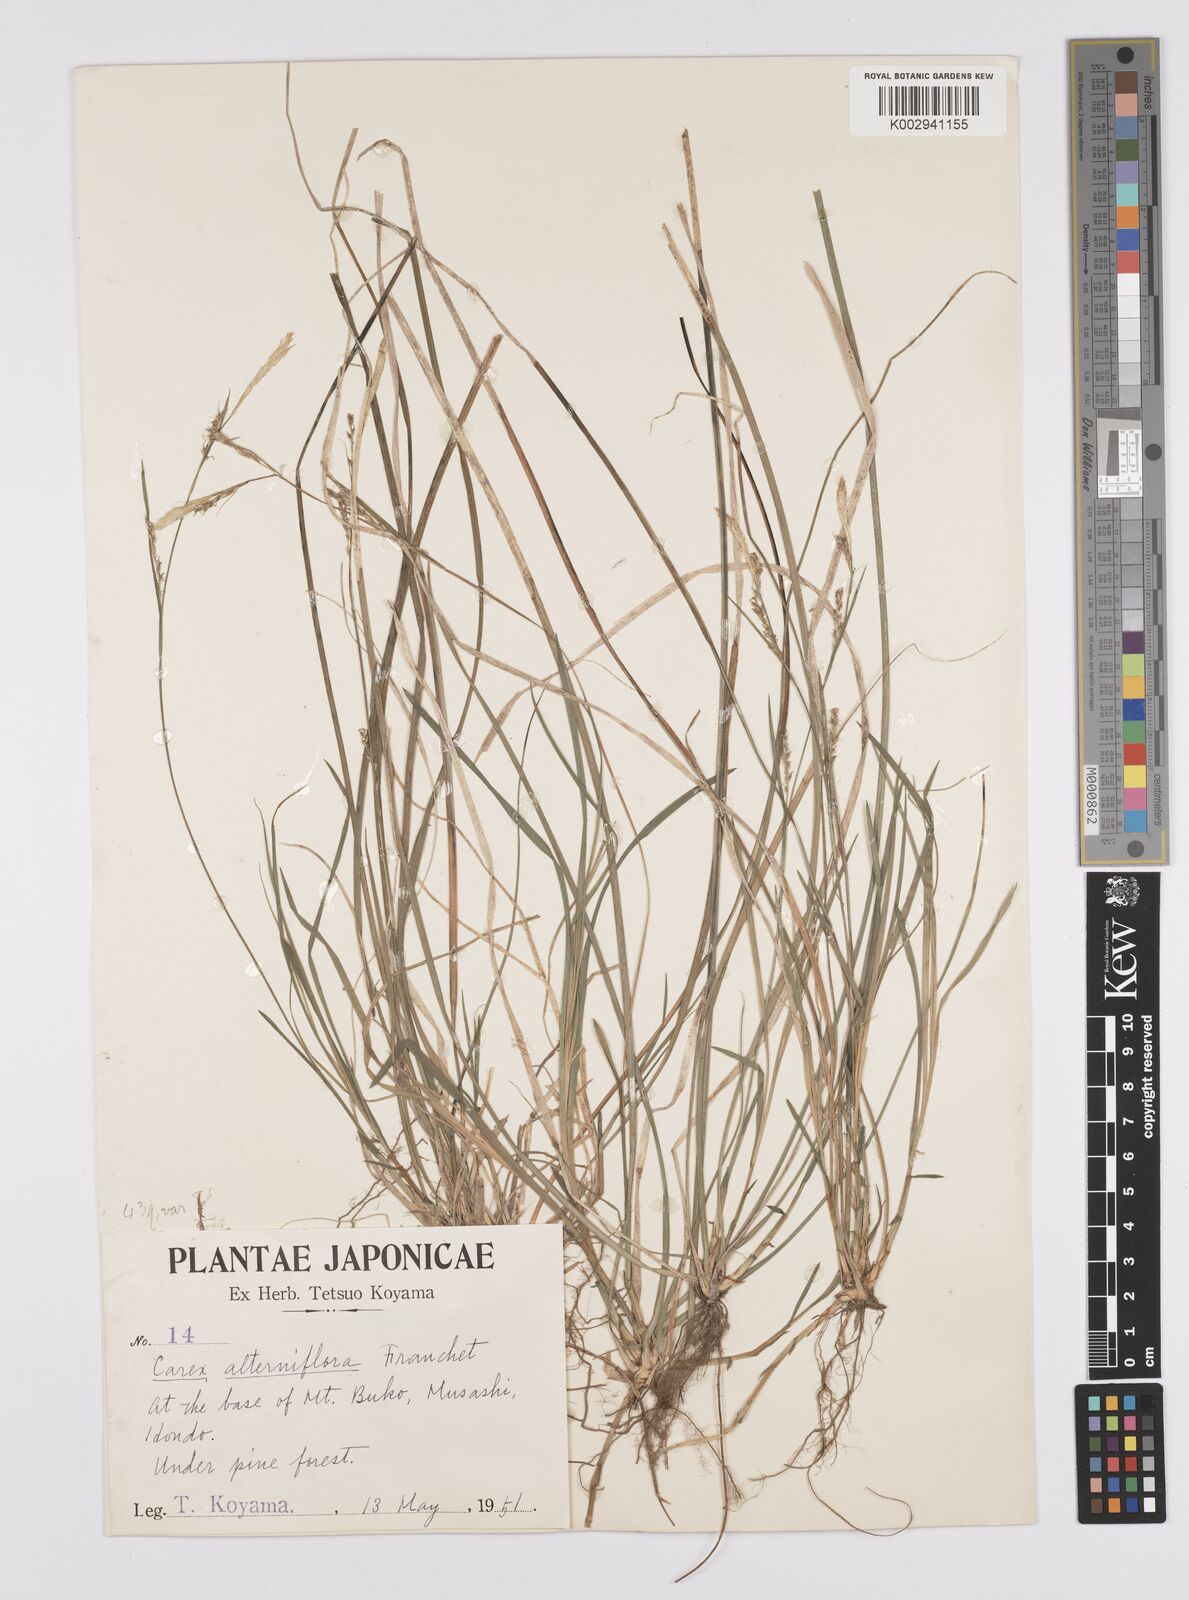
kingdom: Plantae
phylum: Tracheophyta
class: Liliopsida
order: Poales
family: Cyperaceae
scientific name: Cyperaceae
